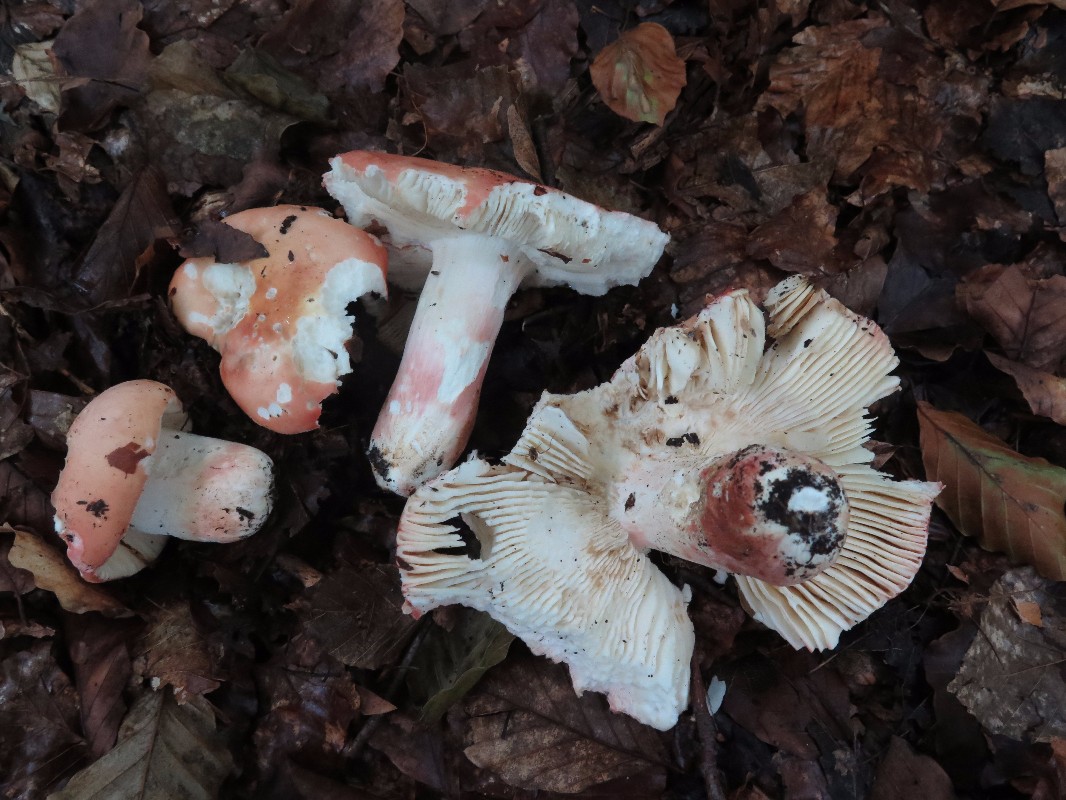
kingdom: Fungi
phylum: Basidiomycota
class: Agaricomycetes
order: Russulales
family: Russulaceae
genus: Russula
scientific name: Russula rosea
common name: fastkødet skørhat
